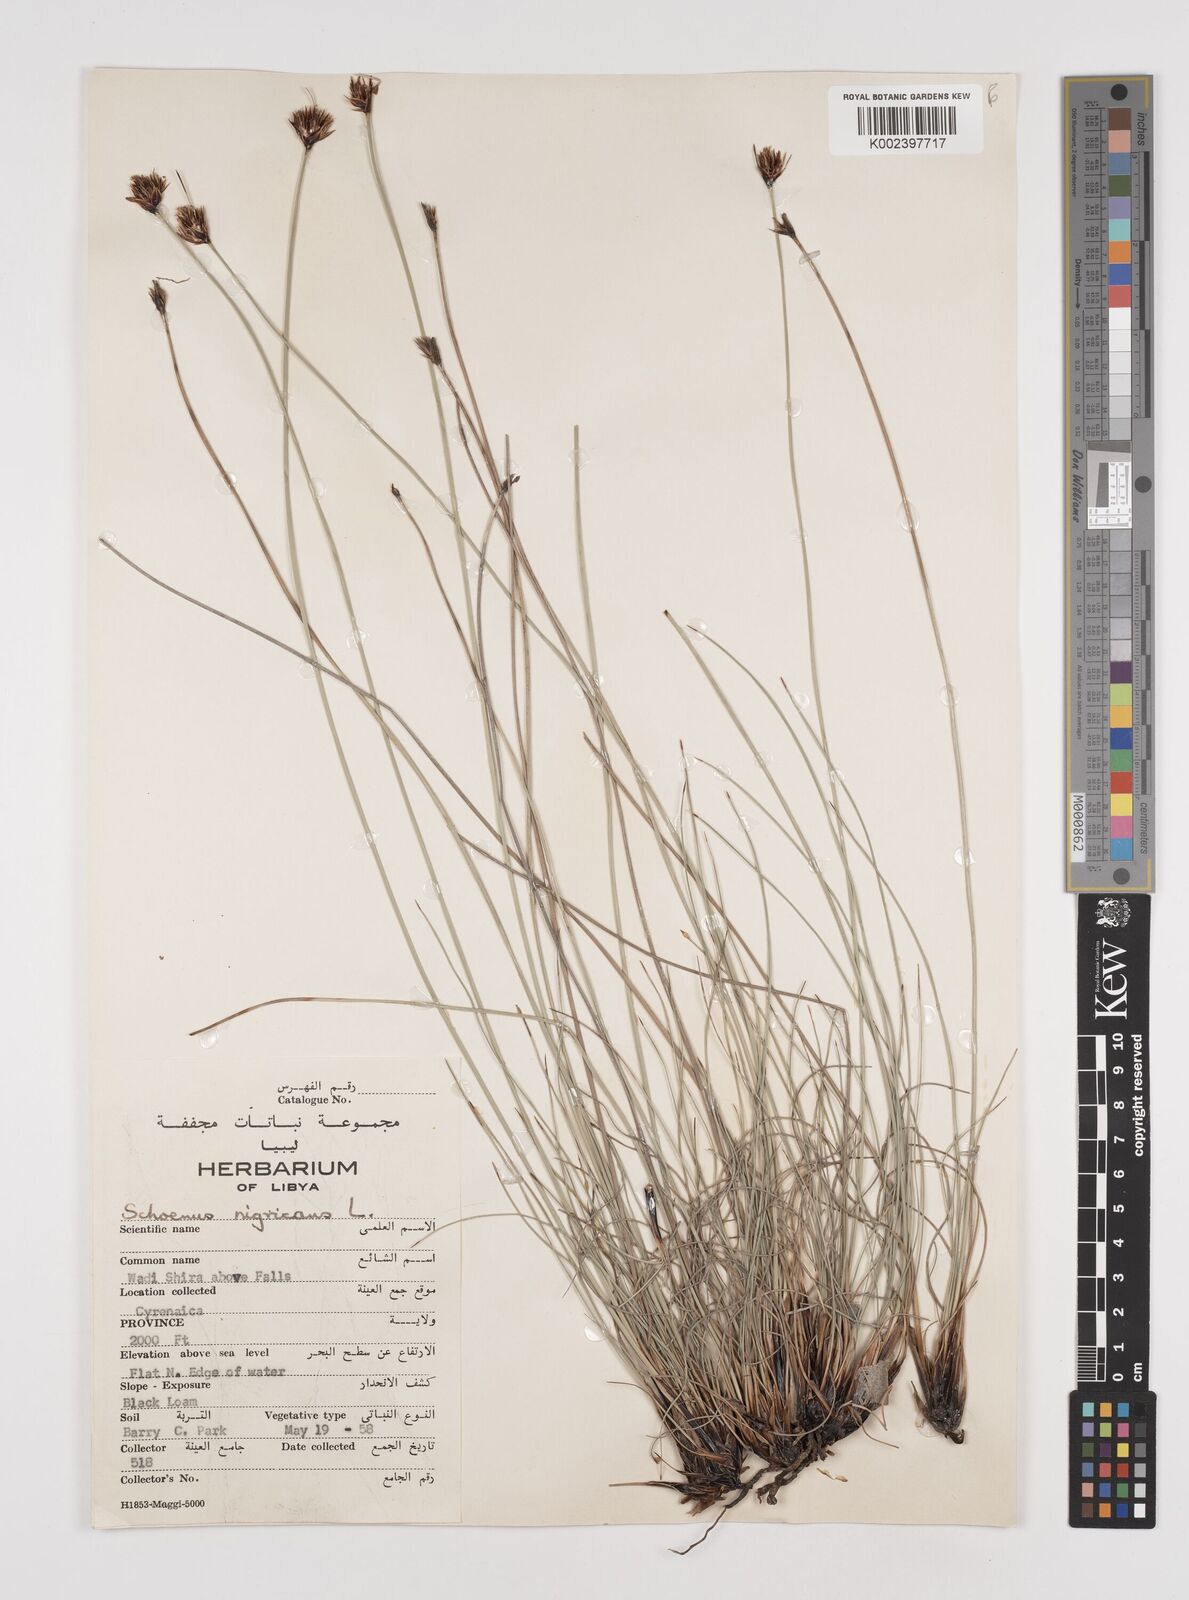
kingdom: Plantae
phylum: Tracheophyta
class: Liliopsida
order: Poales
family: Cyperaceae
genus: Schoenus
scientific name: Schoenus nigricans
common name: Black bog-rush
